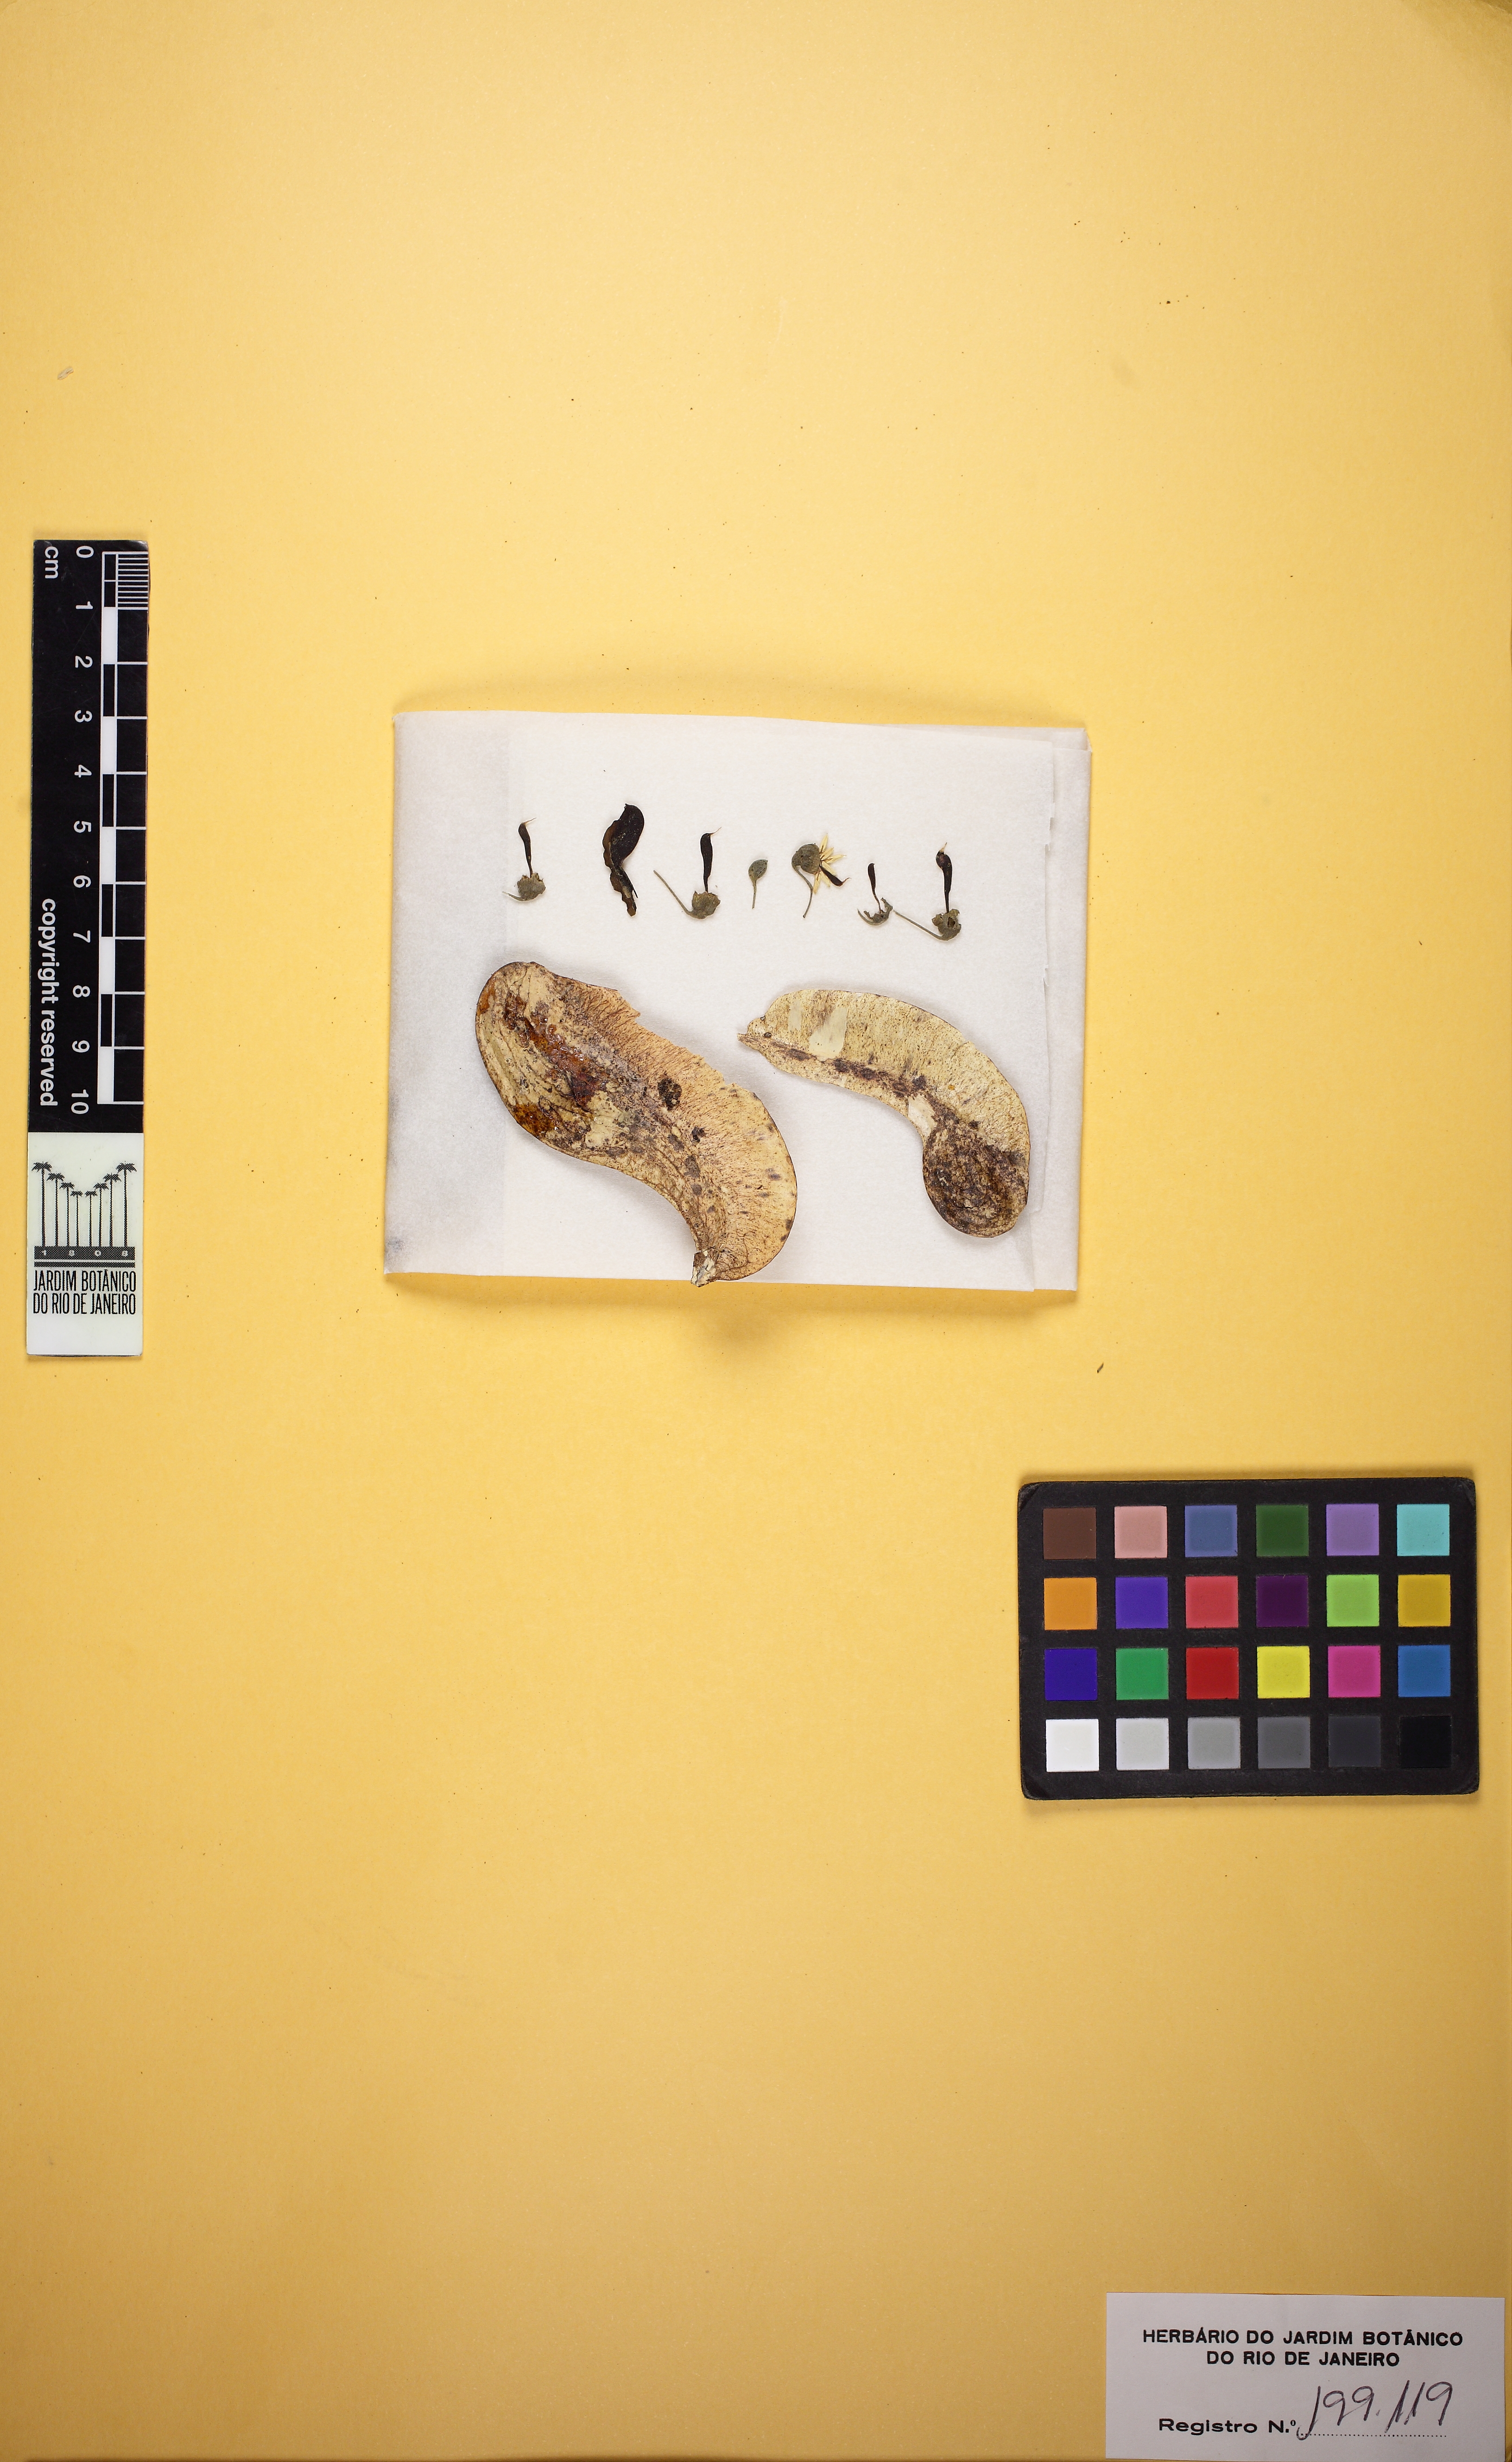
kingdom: Plantae
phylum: Tracheophyta
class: Magnoliopsida
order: Fabales
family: Fabaceae
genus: Myroxylon
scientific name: Myroxylon balsamum
